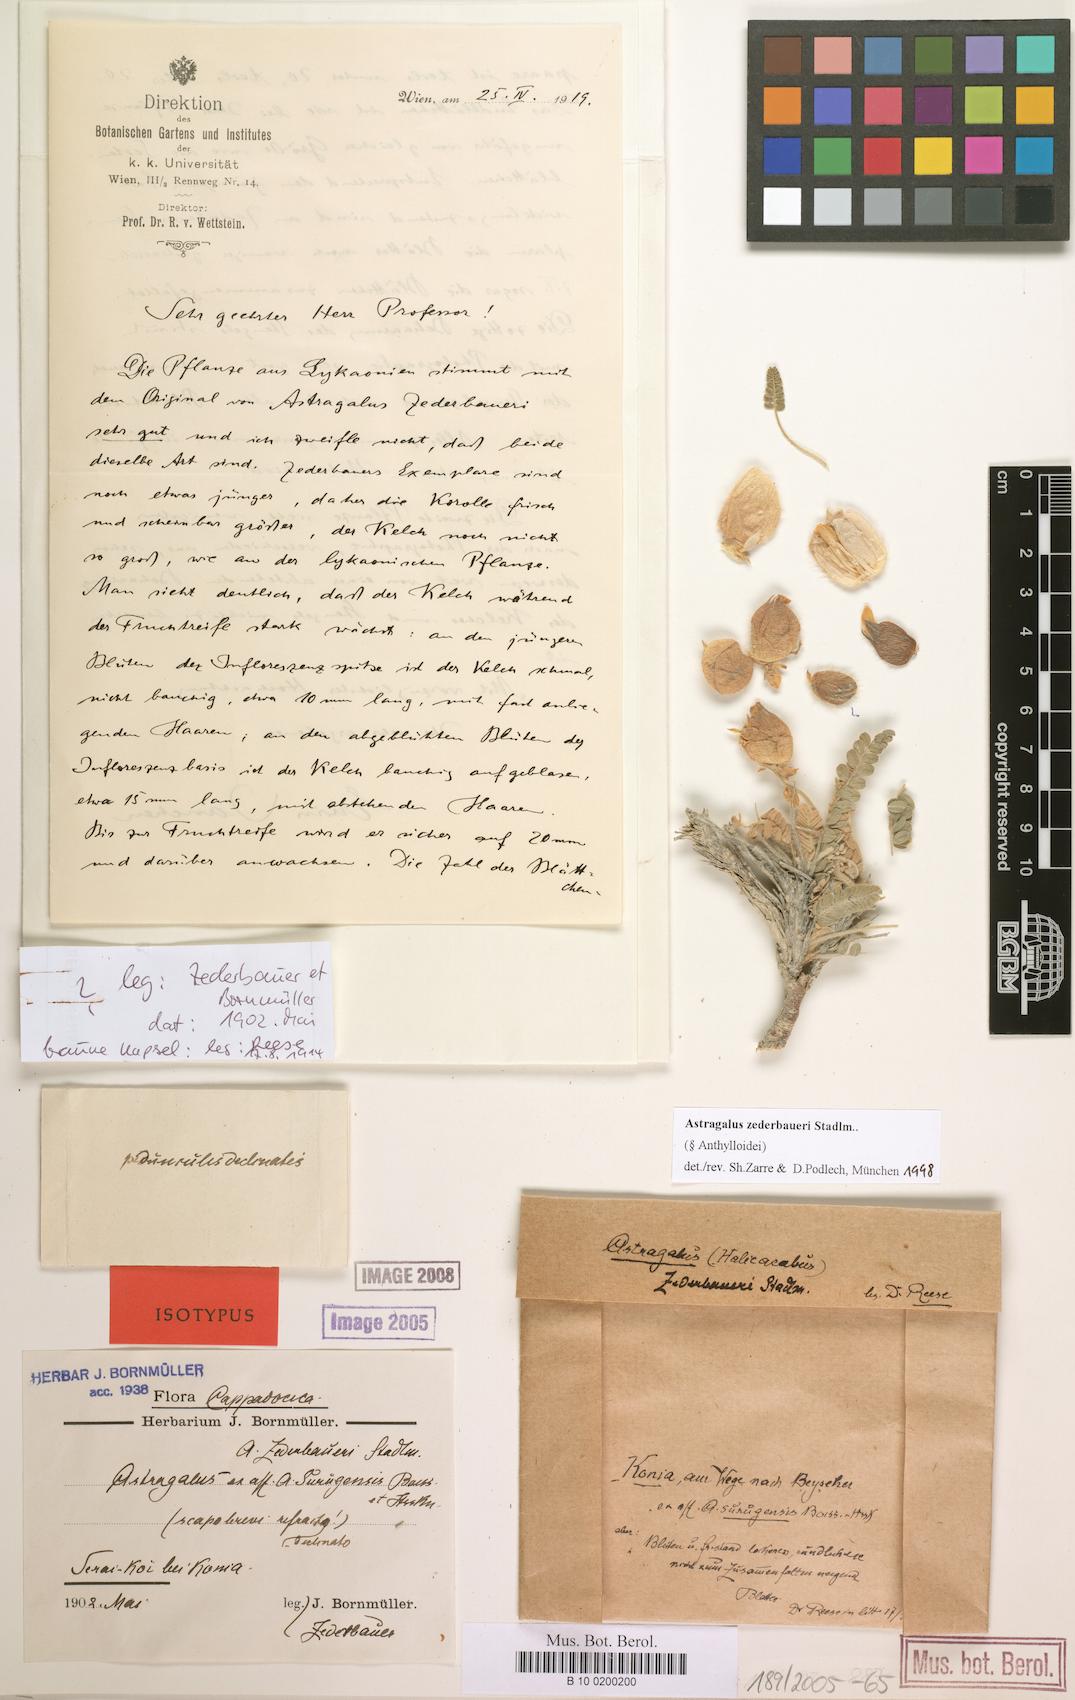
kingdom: Plantae
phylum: Tracheophyta
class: Magnoliopsida
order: Fabales
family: Fabaceae
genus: Astragalus
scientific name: Astragalus zederbaueri
